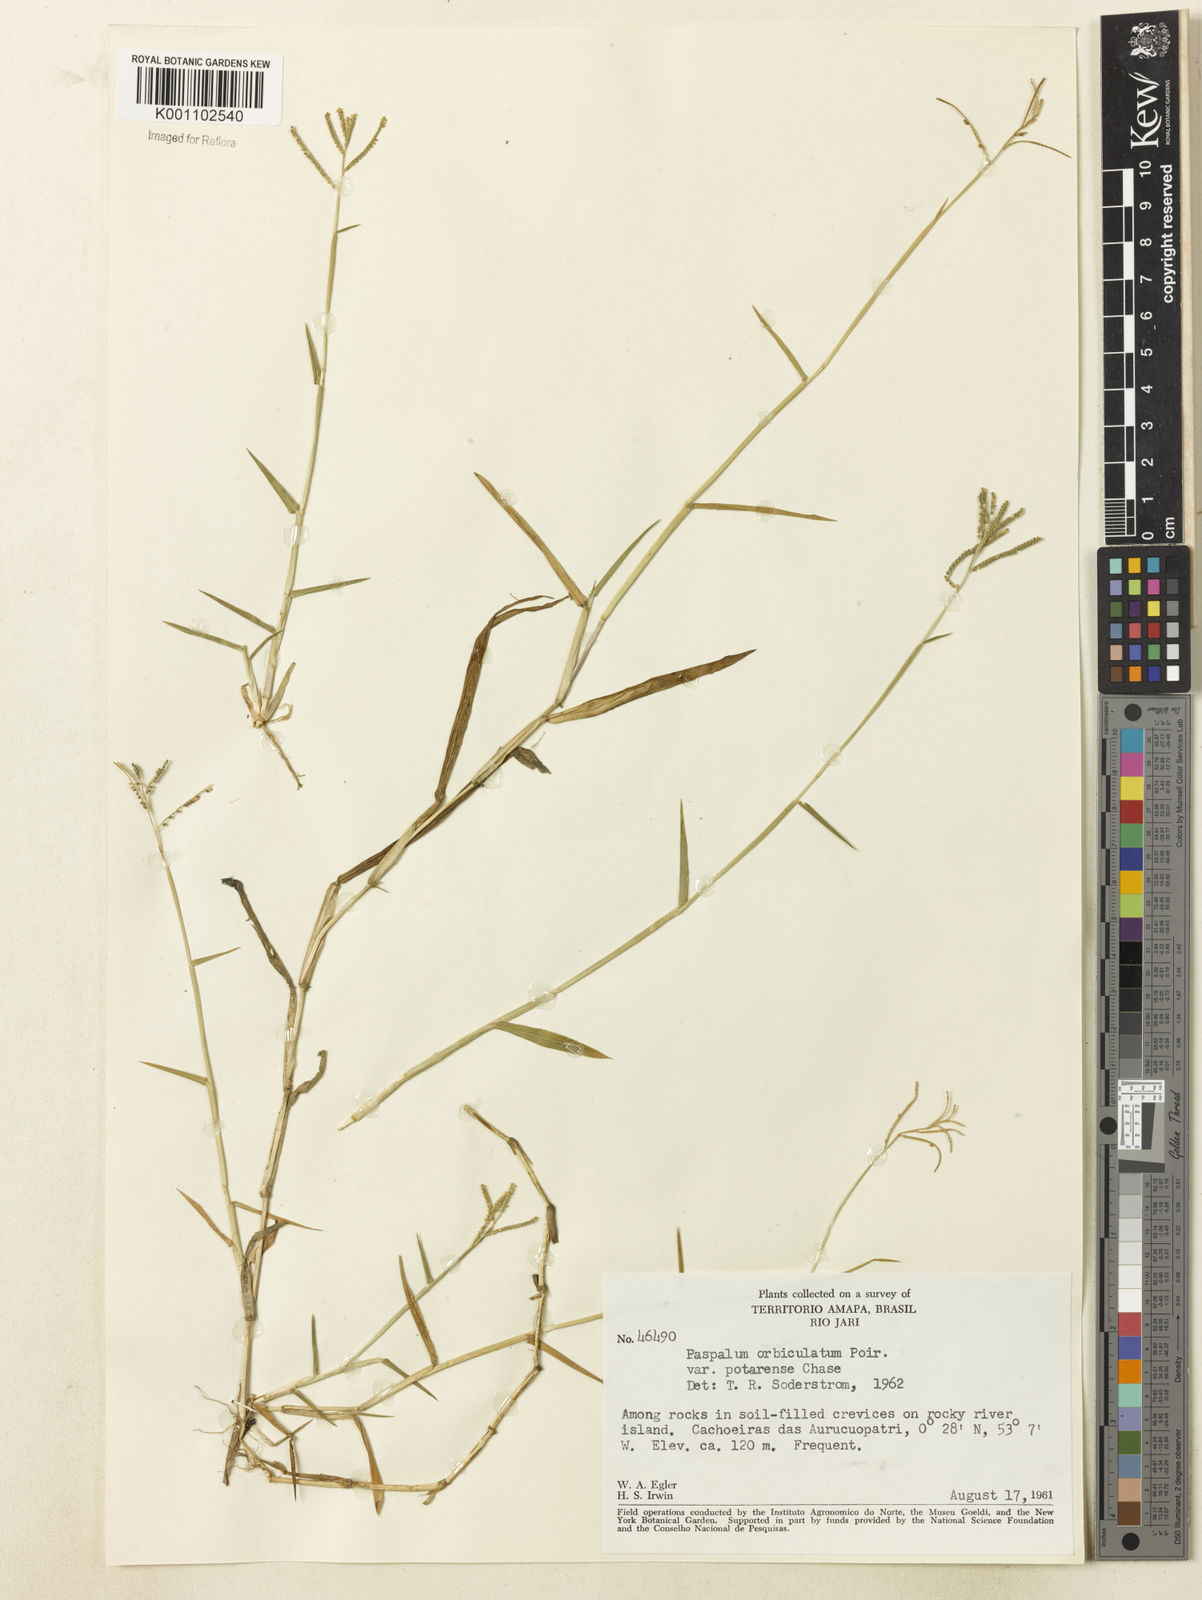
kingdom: Plantae
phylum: Tracheophyta
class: Liliopsida
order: Poales
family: Poaceae
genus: Paspalum
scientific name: Paspalum orbiculatum
